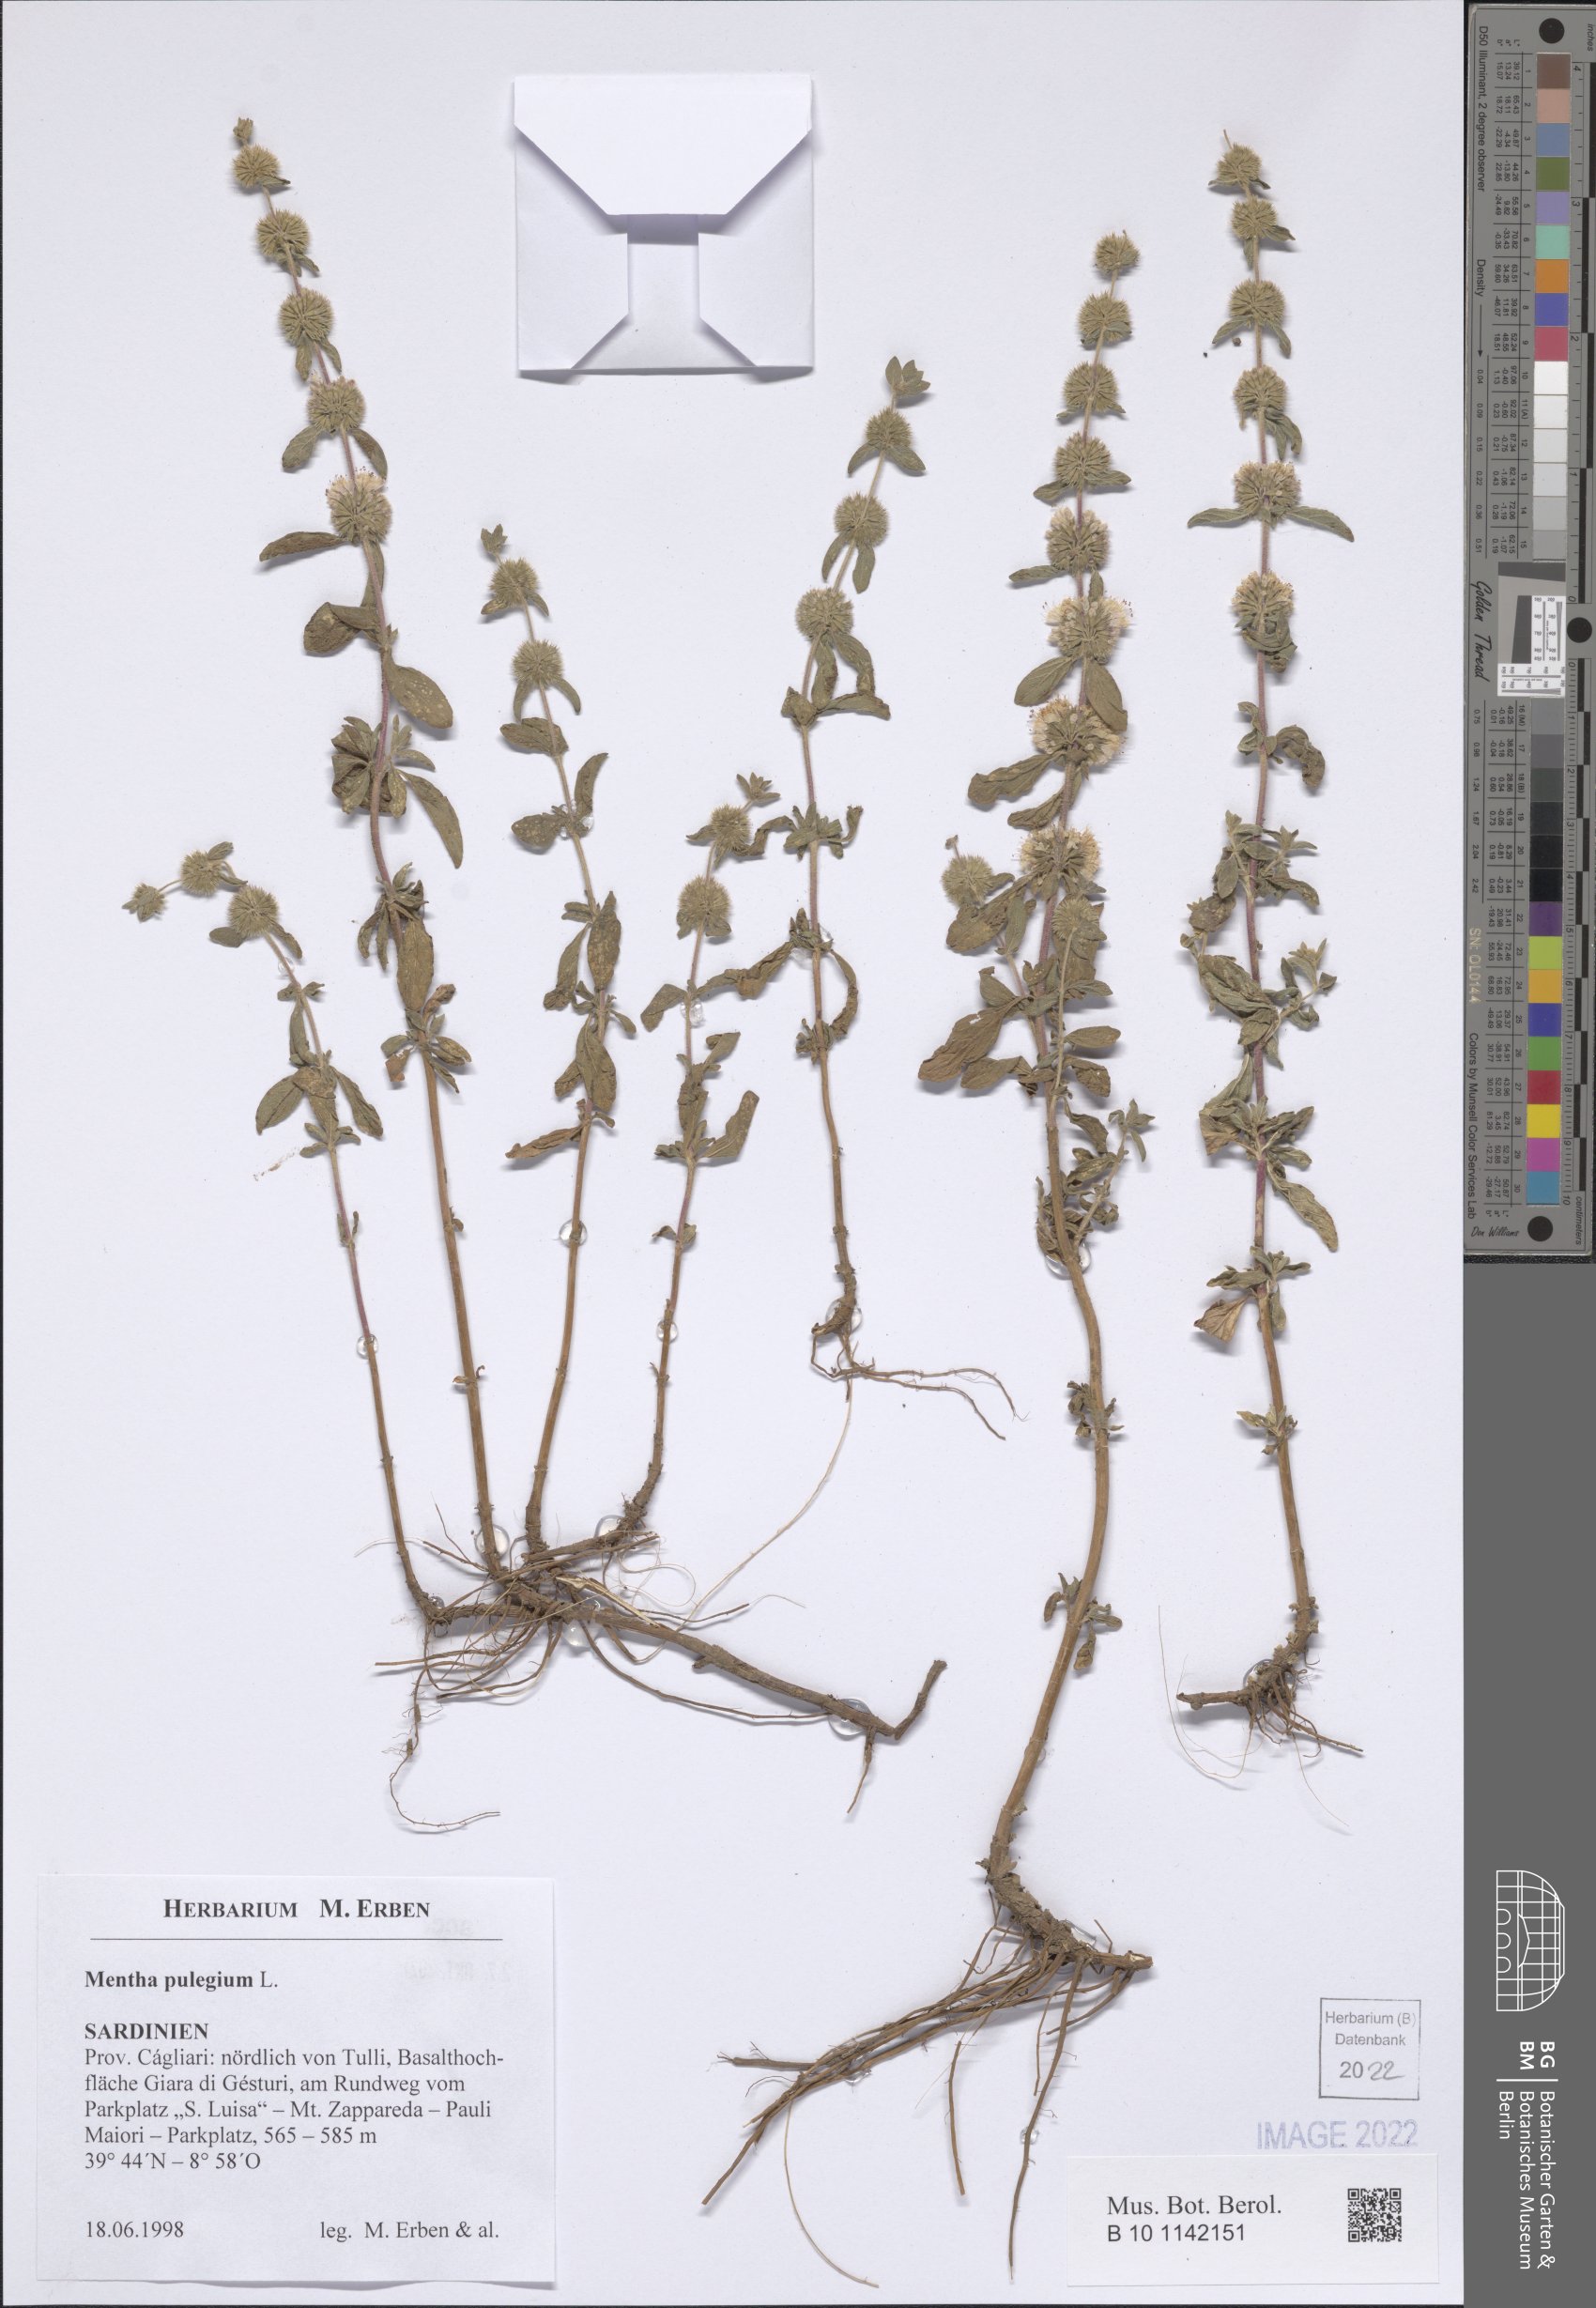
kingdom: Plantae
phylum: Tracheophyta
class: Magnoliopsida
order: Lamiales
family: Lamiaceae
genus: Mentha
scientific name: Mentha pulegium
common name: Pennyroyal
